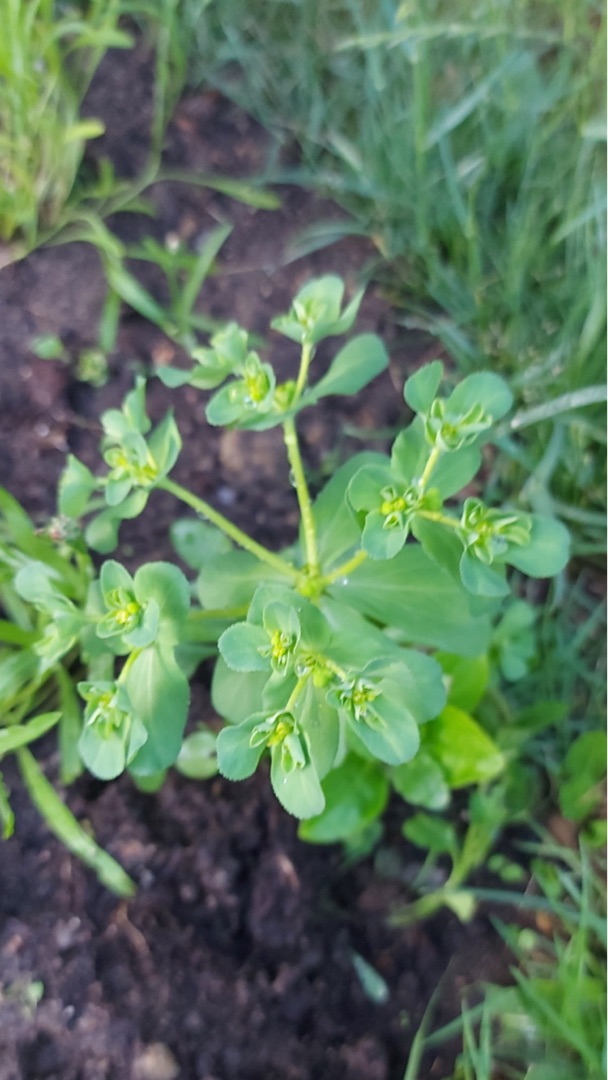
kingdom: Plantae
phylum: Tracheophyta
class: Magnoliopsida
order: Malpighiales
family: Euphorbiaceae
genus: Euphorbia
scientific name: Euphorbia helioscopia
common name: Skærm-vortemælk
